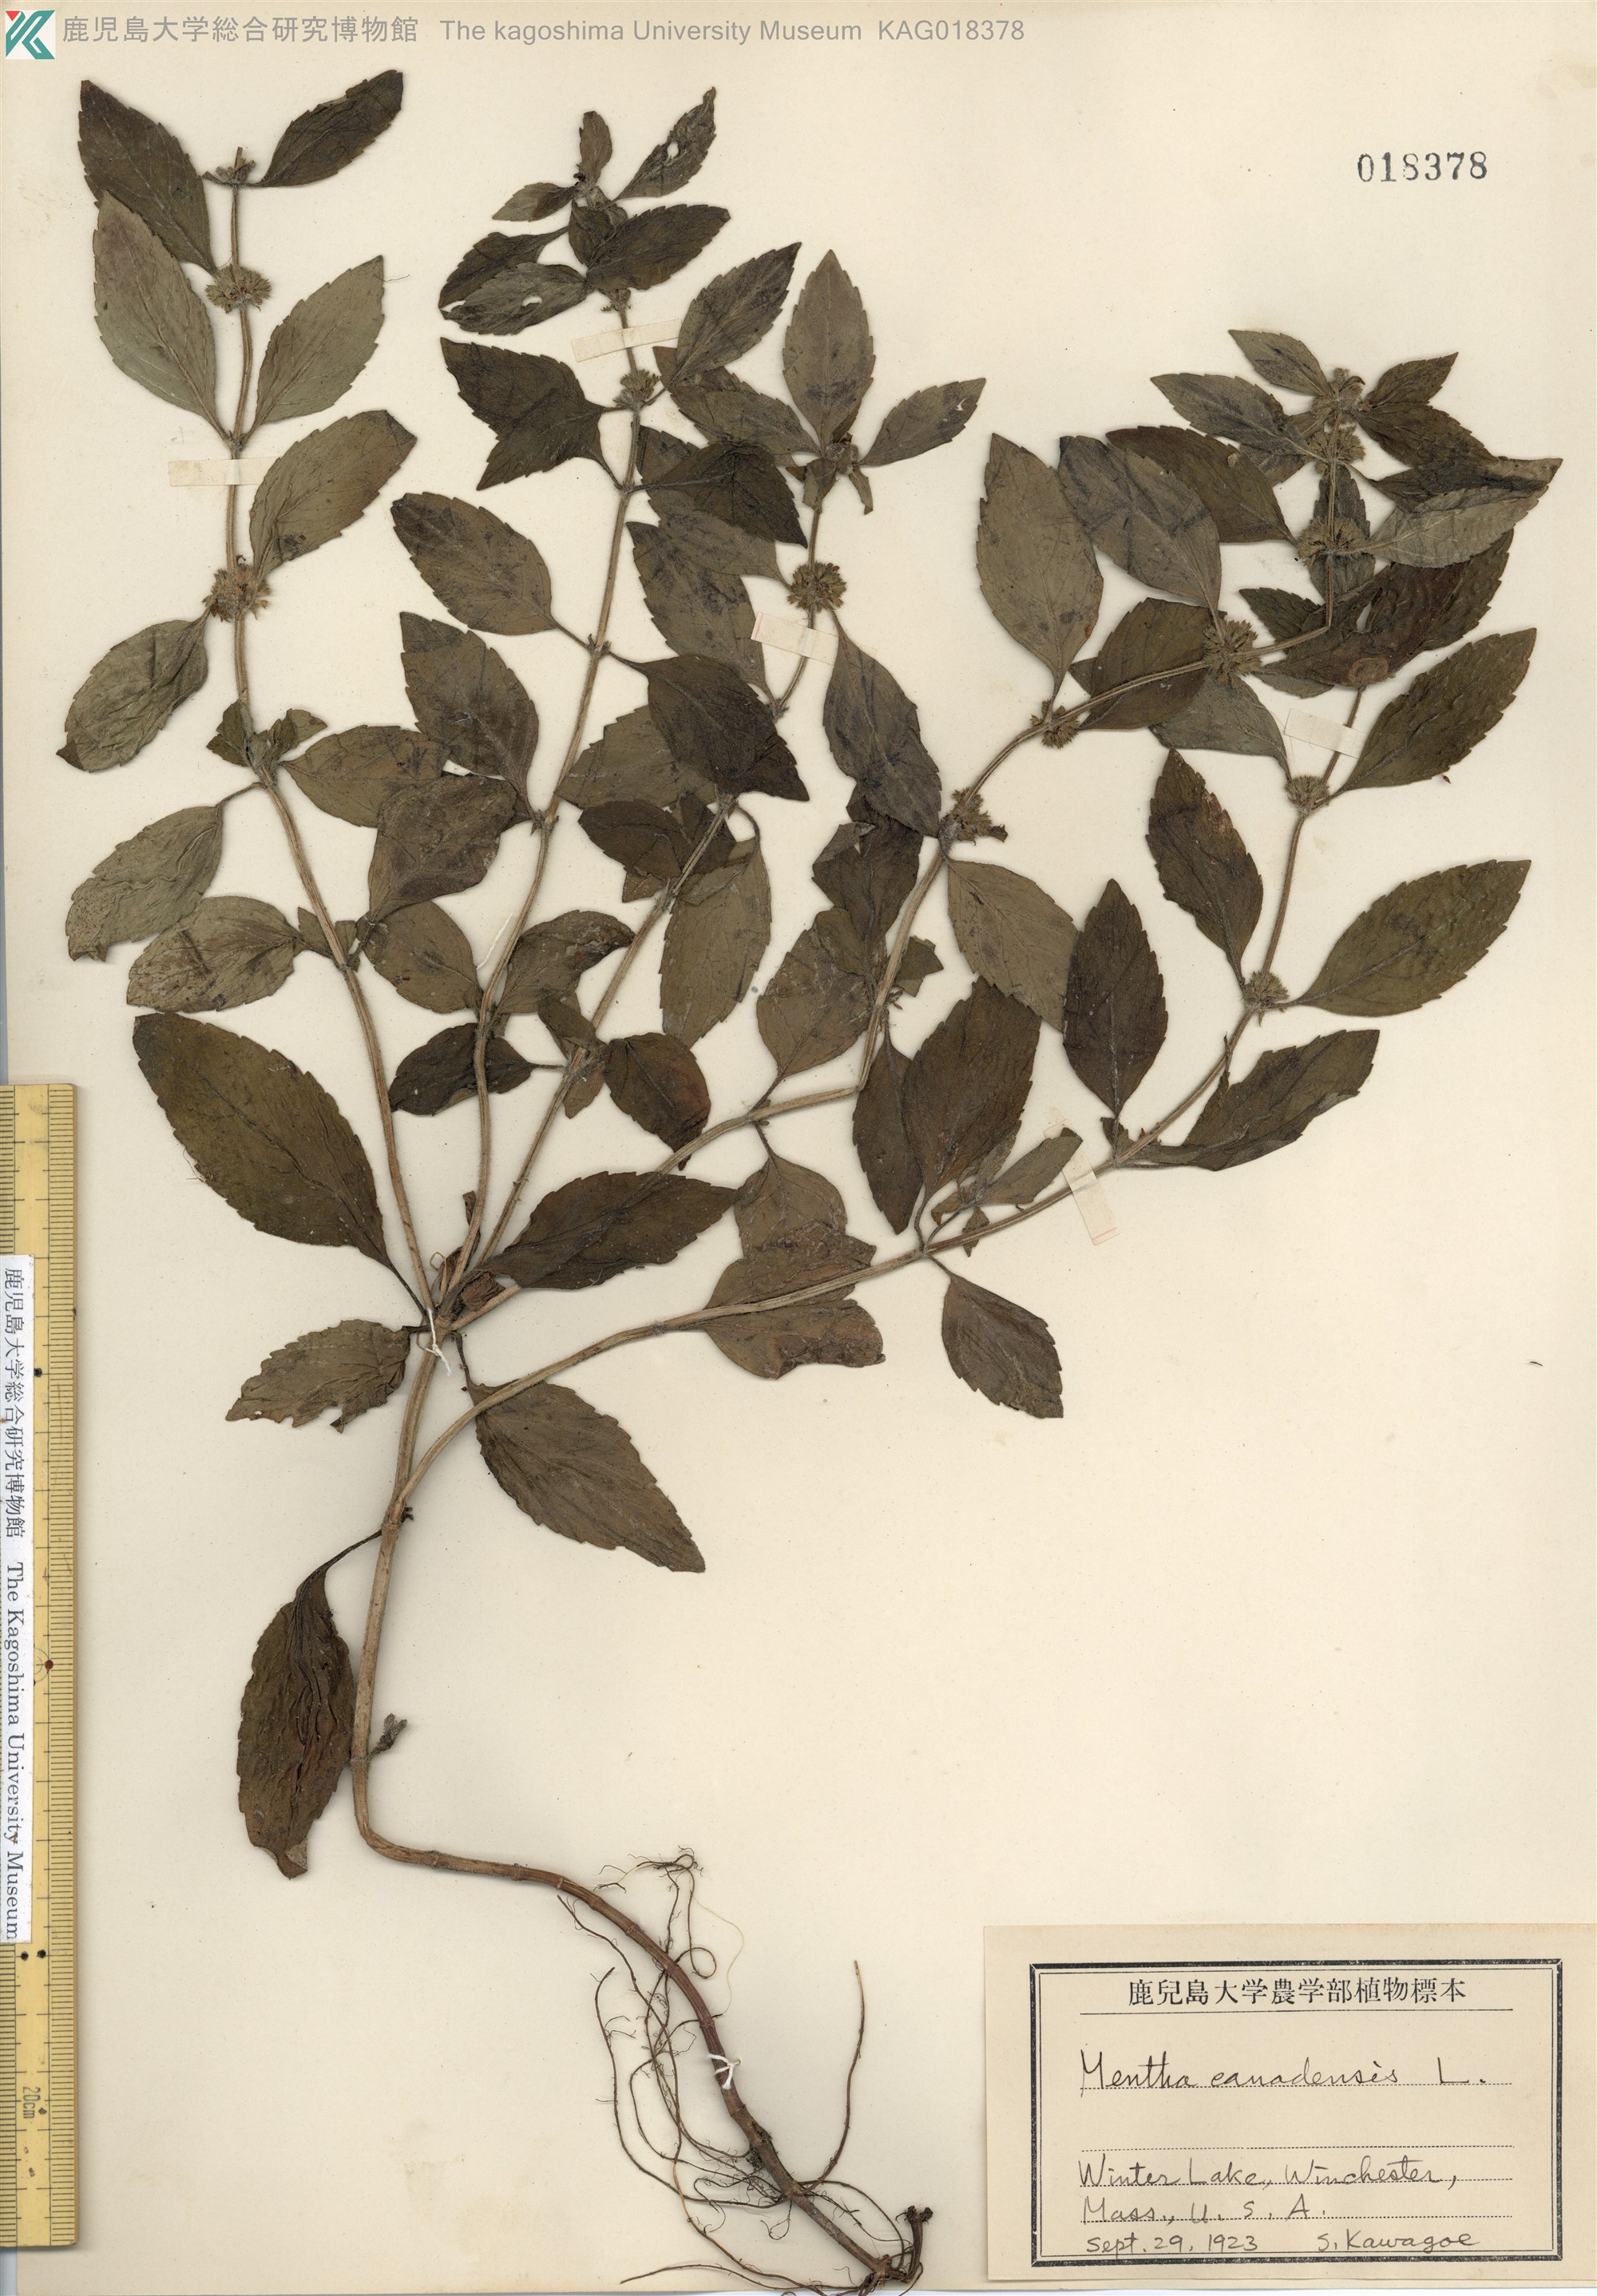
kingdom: Plantae
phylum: Tracheophyta
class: Magnoliopsida
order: Lamiales
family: Lamiaceae
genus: Mentha
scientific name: Mentha canadensis
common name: American corn mint
